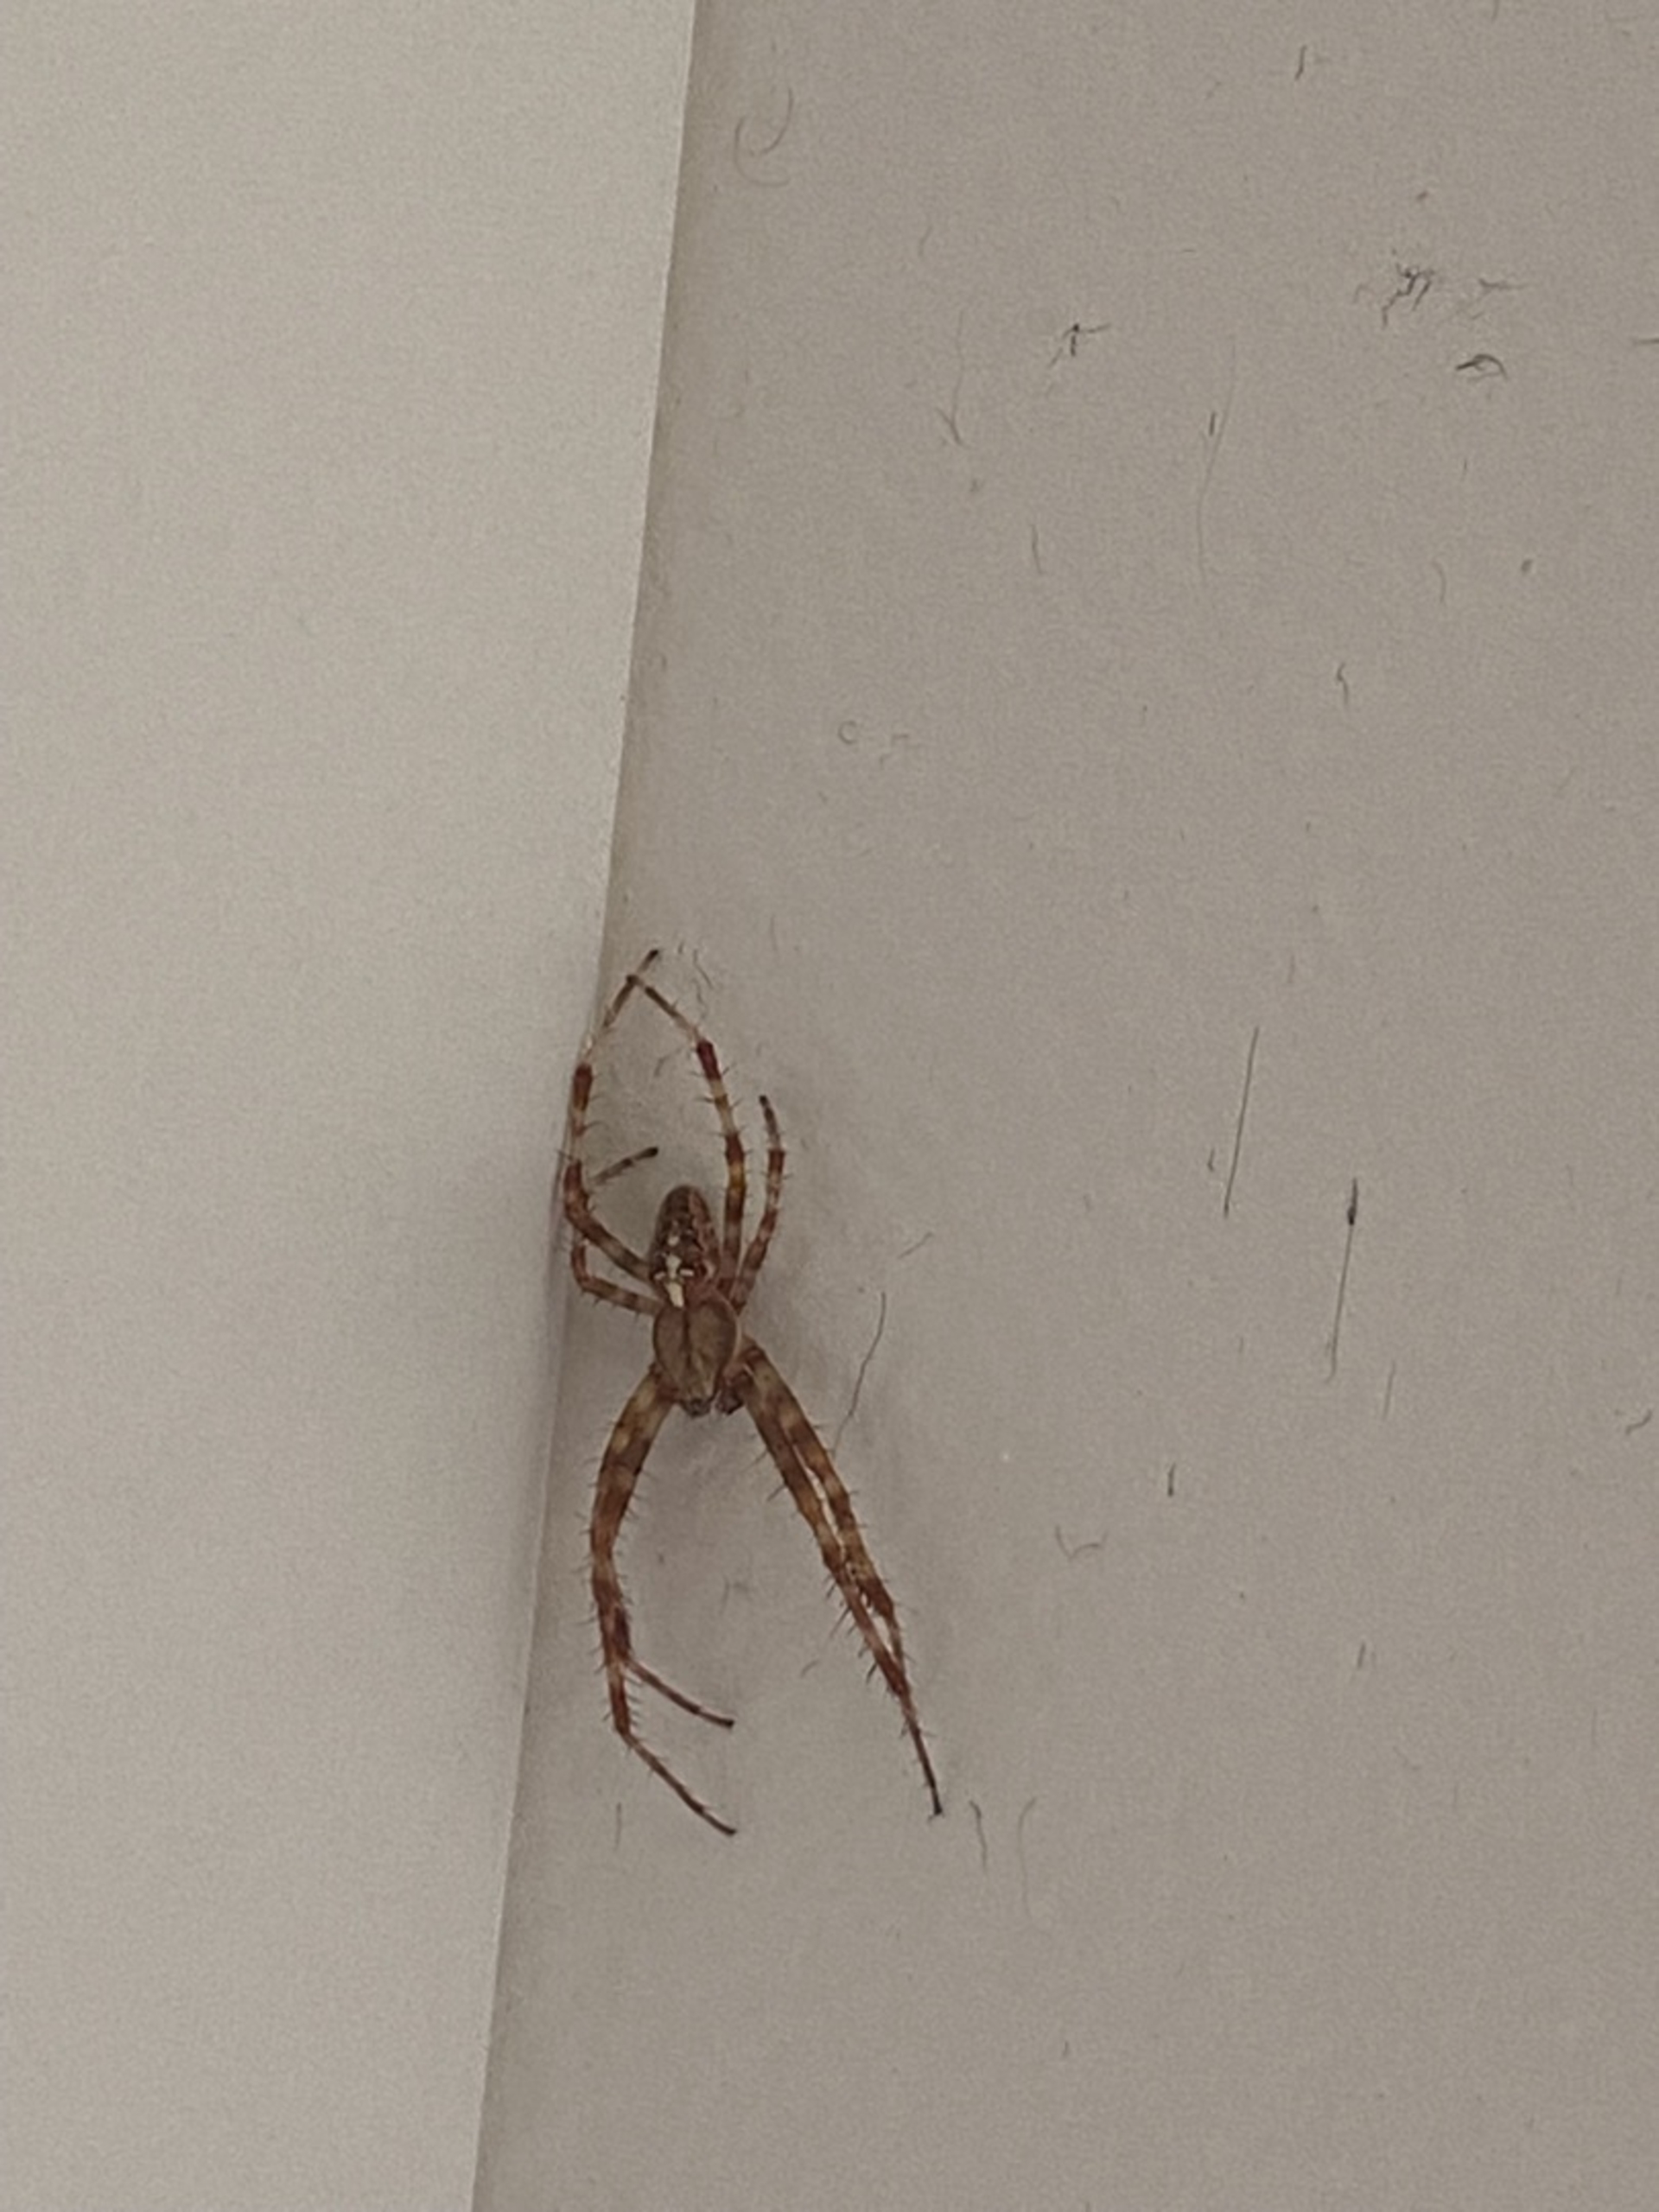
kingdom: Animalia
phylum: Arthropoda
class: Arachnida
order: Araneae
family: Araneidae
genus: Araneus
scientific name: Araneus diadematus
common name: Korsedderkop
